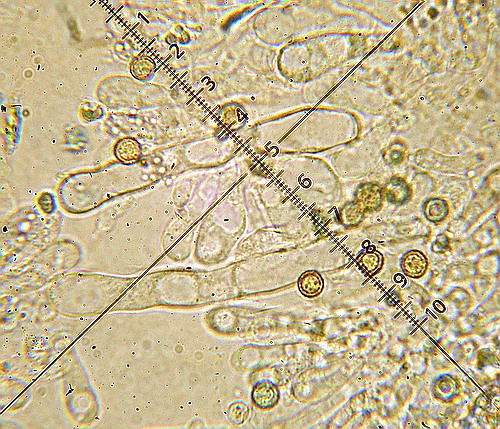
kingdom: Fungi
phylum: Basidiomycota
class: Agaricomycetes
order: Agaricales
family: Crepidotaceae
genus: Crepidotus
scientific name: Crepidotus stenocystis
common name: nåletræs-muslingesvamp
